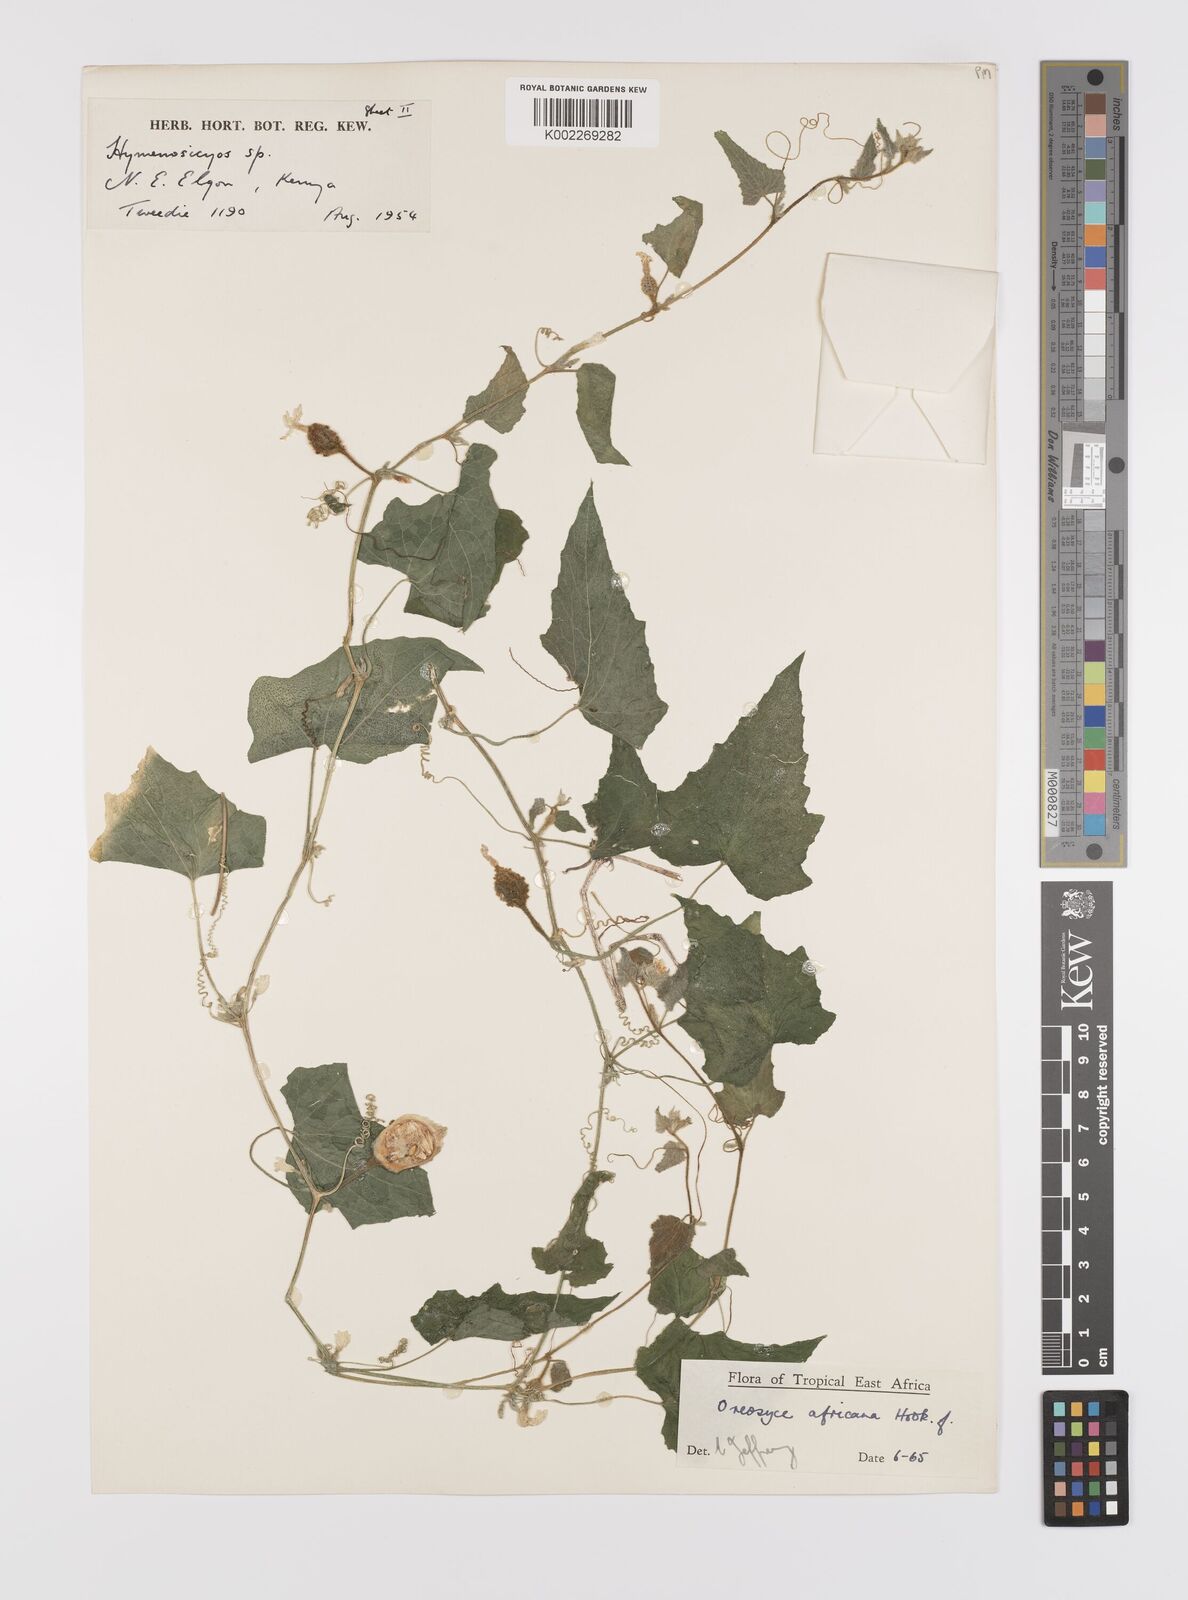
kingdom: Plantae
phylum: Tracheophyta
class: Magnoliopsida
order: Cucurbitales
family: Cucurbitaceae
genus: Cucumis
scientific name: Cucumis oreosyce
